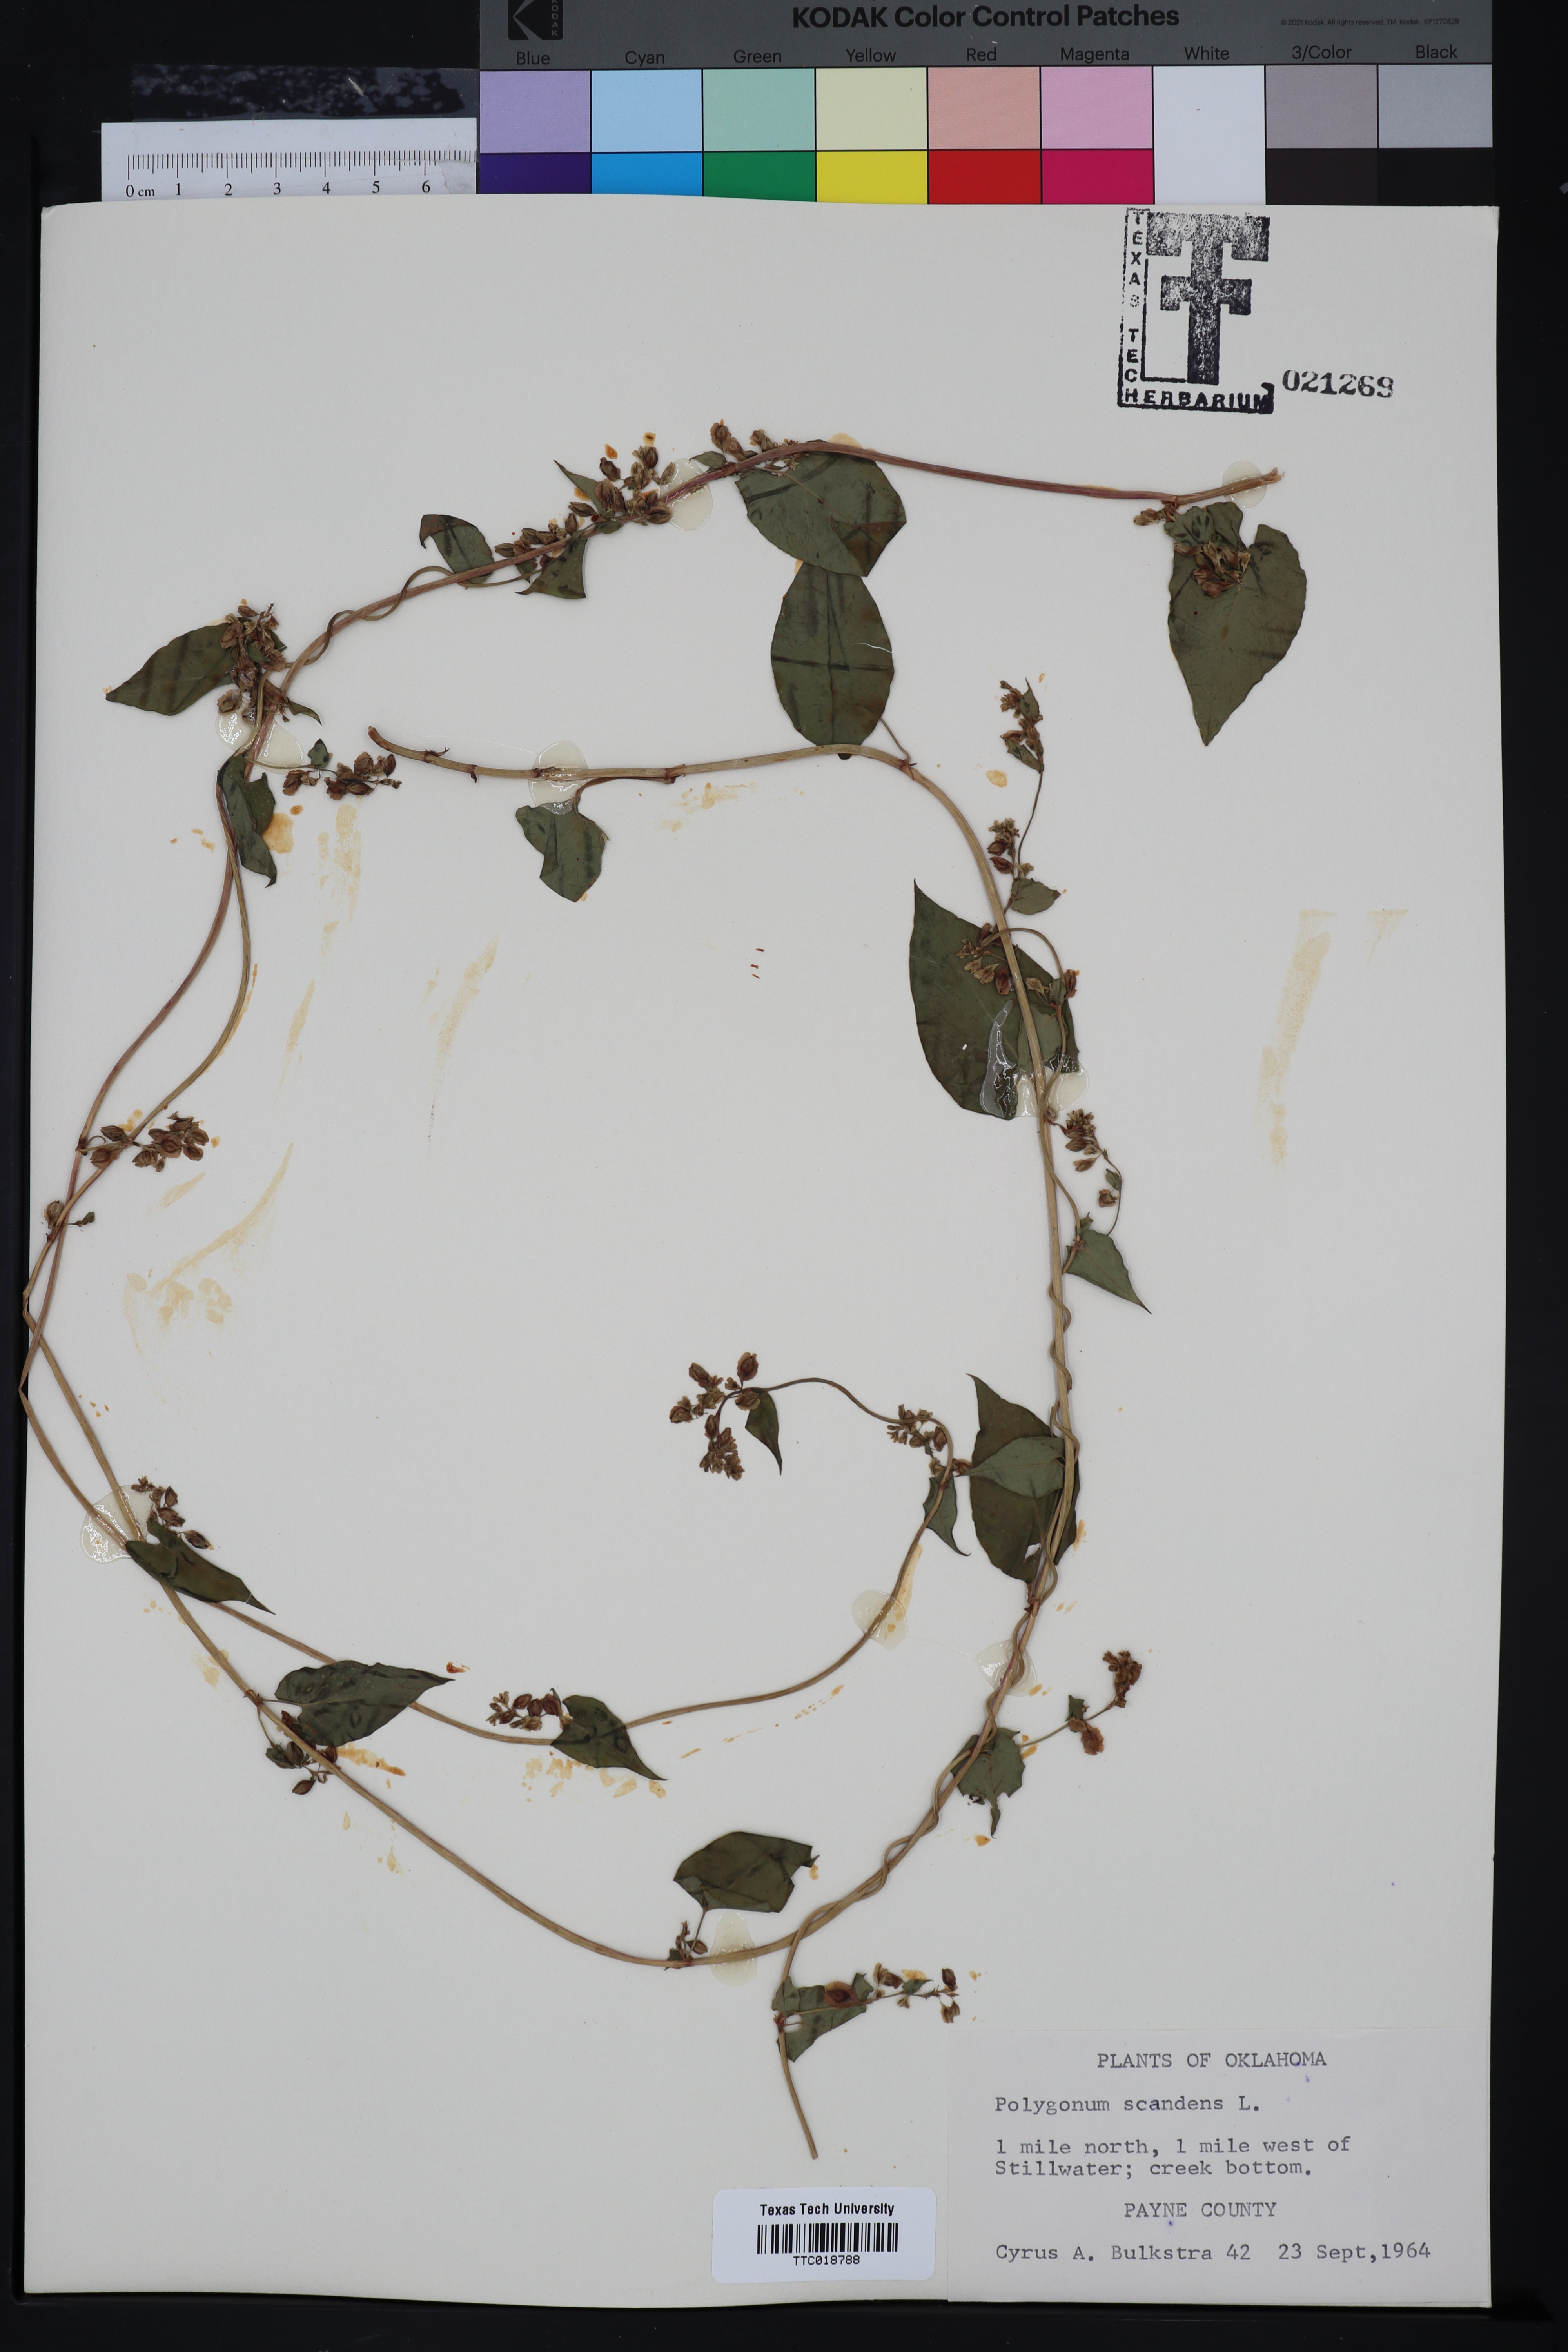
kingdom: Plantae
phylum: Tracheophyta
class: Magnoliopsida
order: Caryophyllales
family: Polygonaceae
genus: Fallopia
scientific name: Fallopia scandens
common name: Climbing false buckwheat
